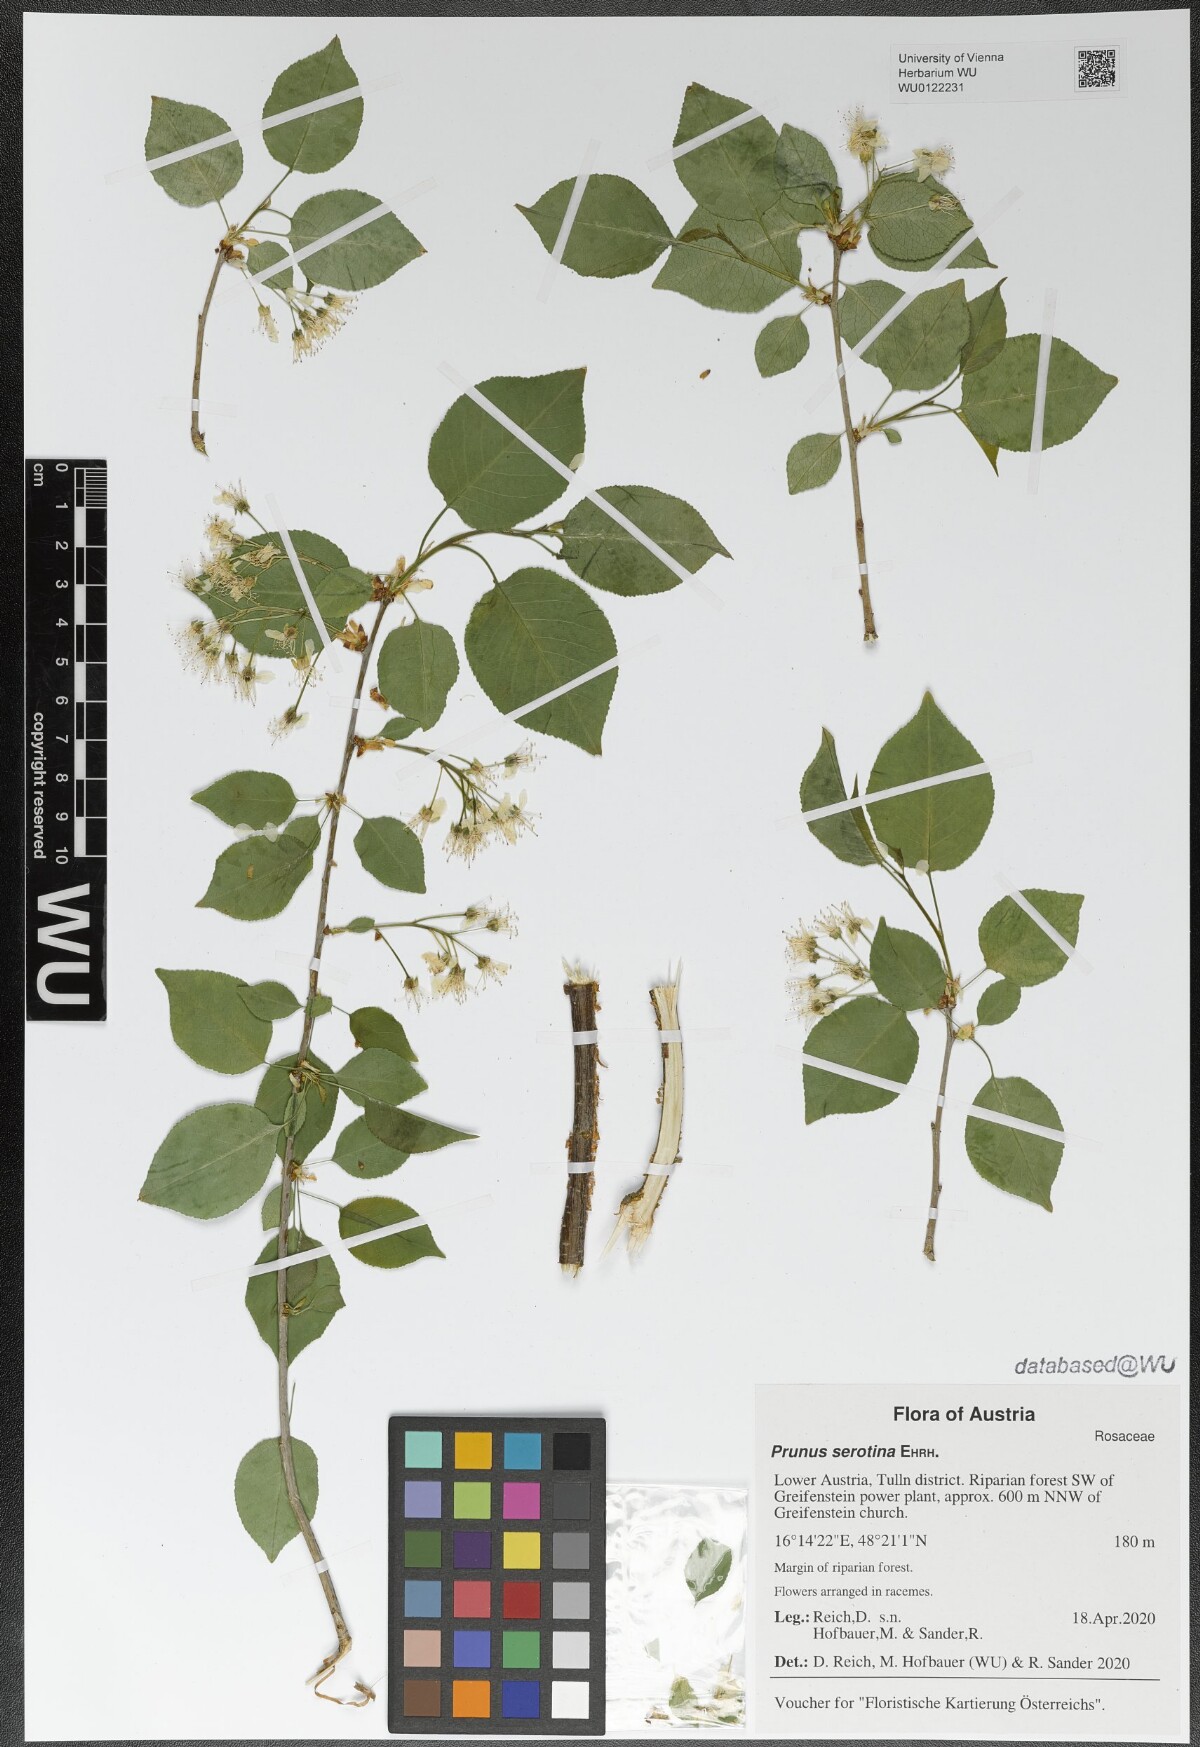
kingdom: Plantae
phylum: Tracheophyta
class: Magnoliopsida
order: Rosales
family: Rosaceae
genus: Prunus
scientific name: Prunus serotina
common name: Black cherry
